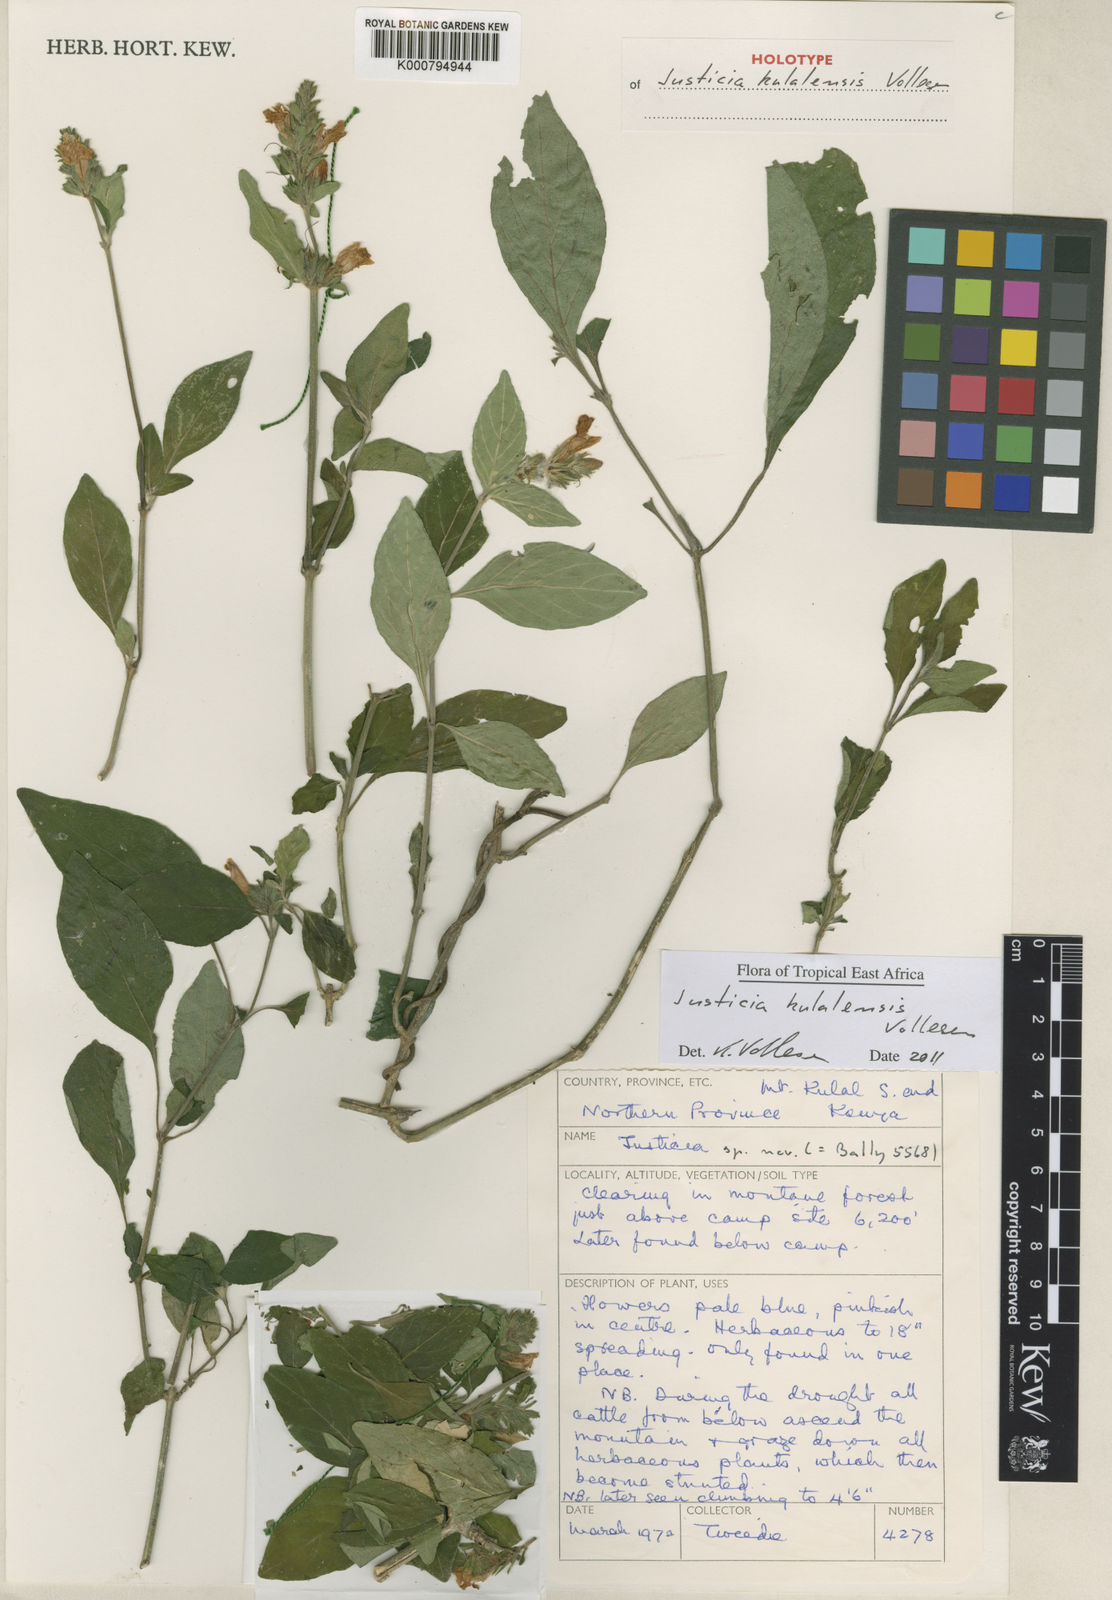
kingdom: Plantae
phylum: Tracheophyta
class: Magnoliopsida
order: Lamiales
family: Acanthaceae
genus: Justicia
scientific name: Justicia kulalensis
